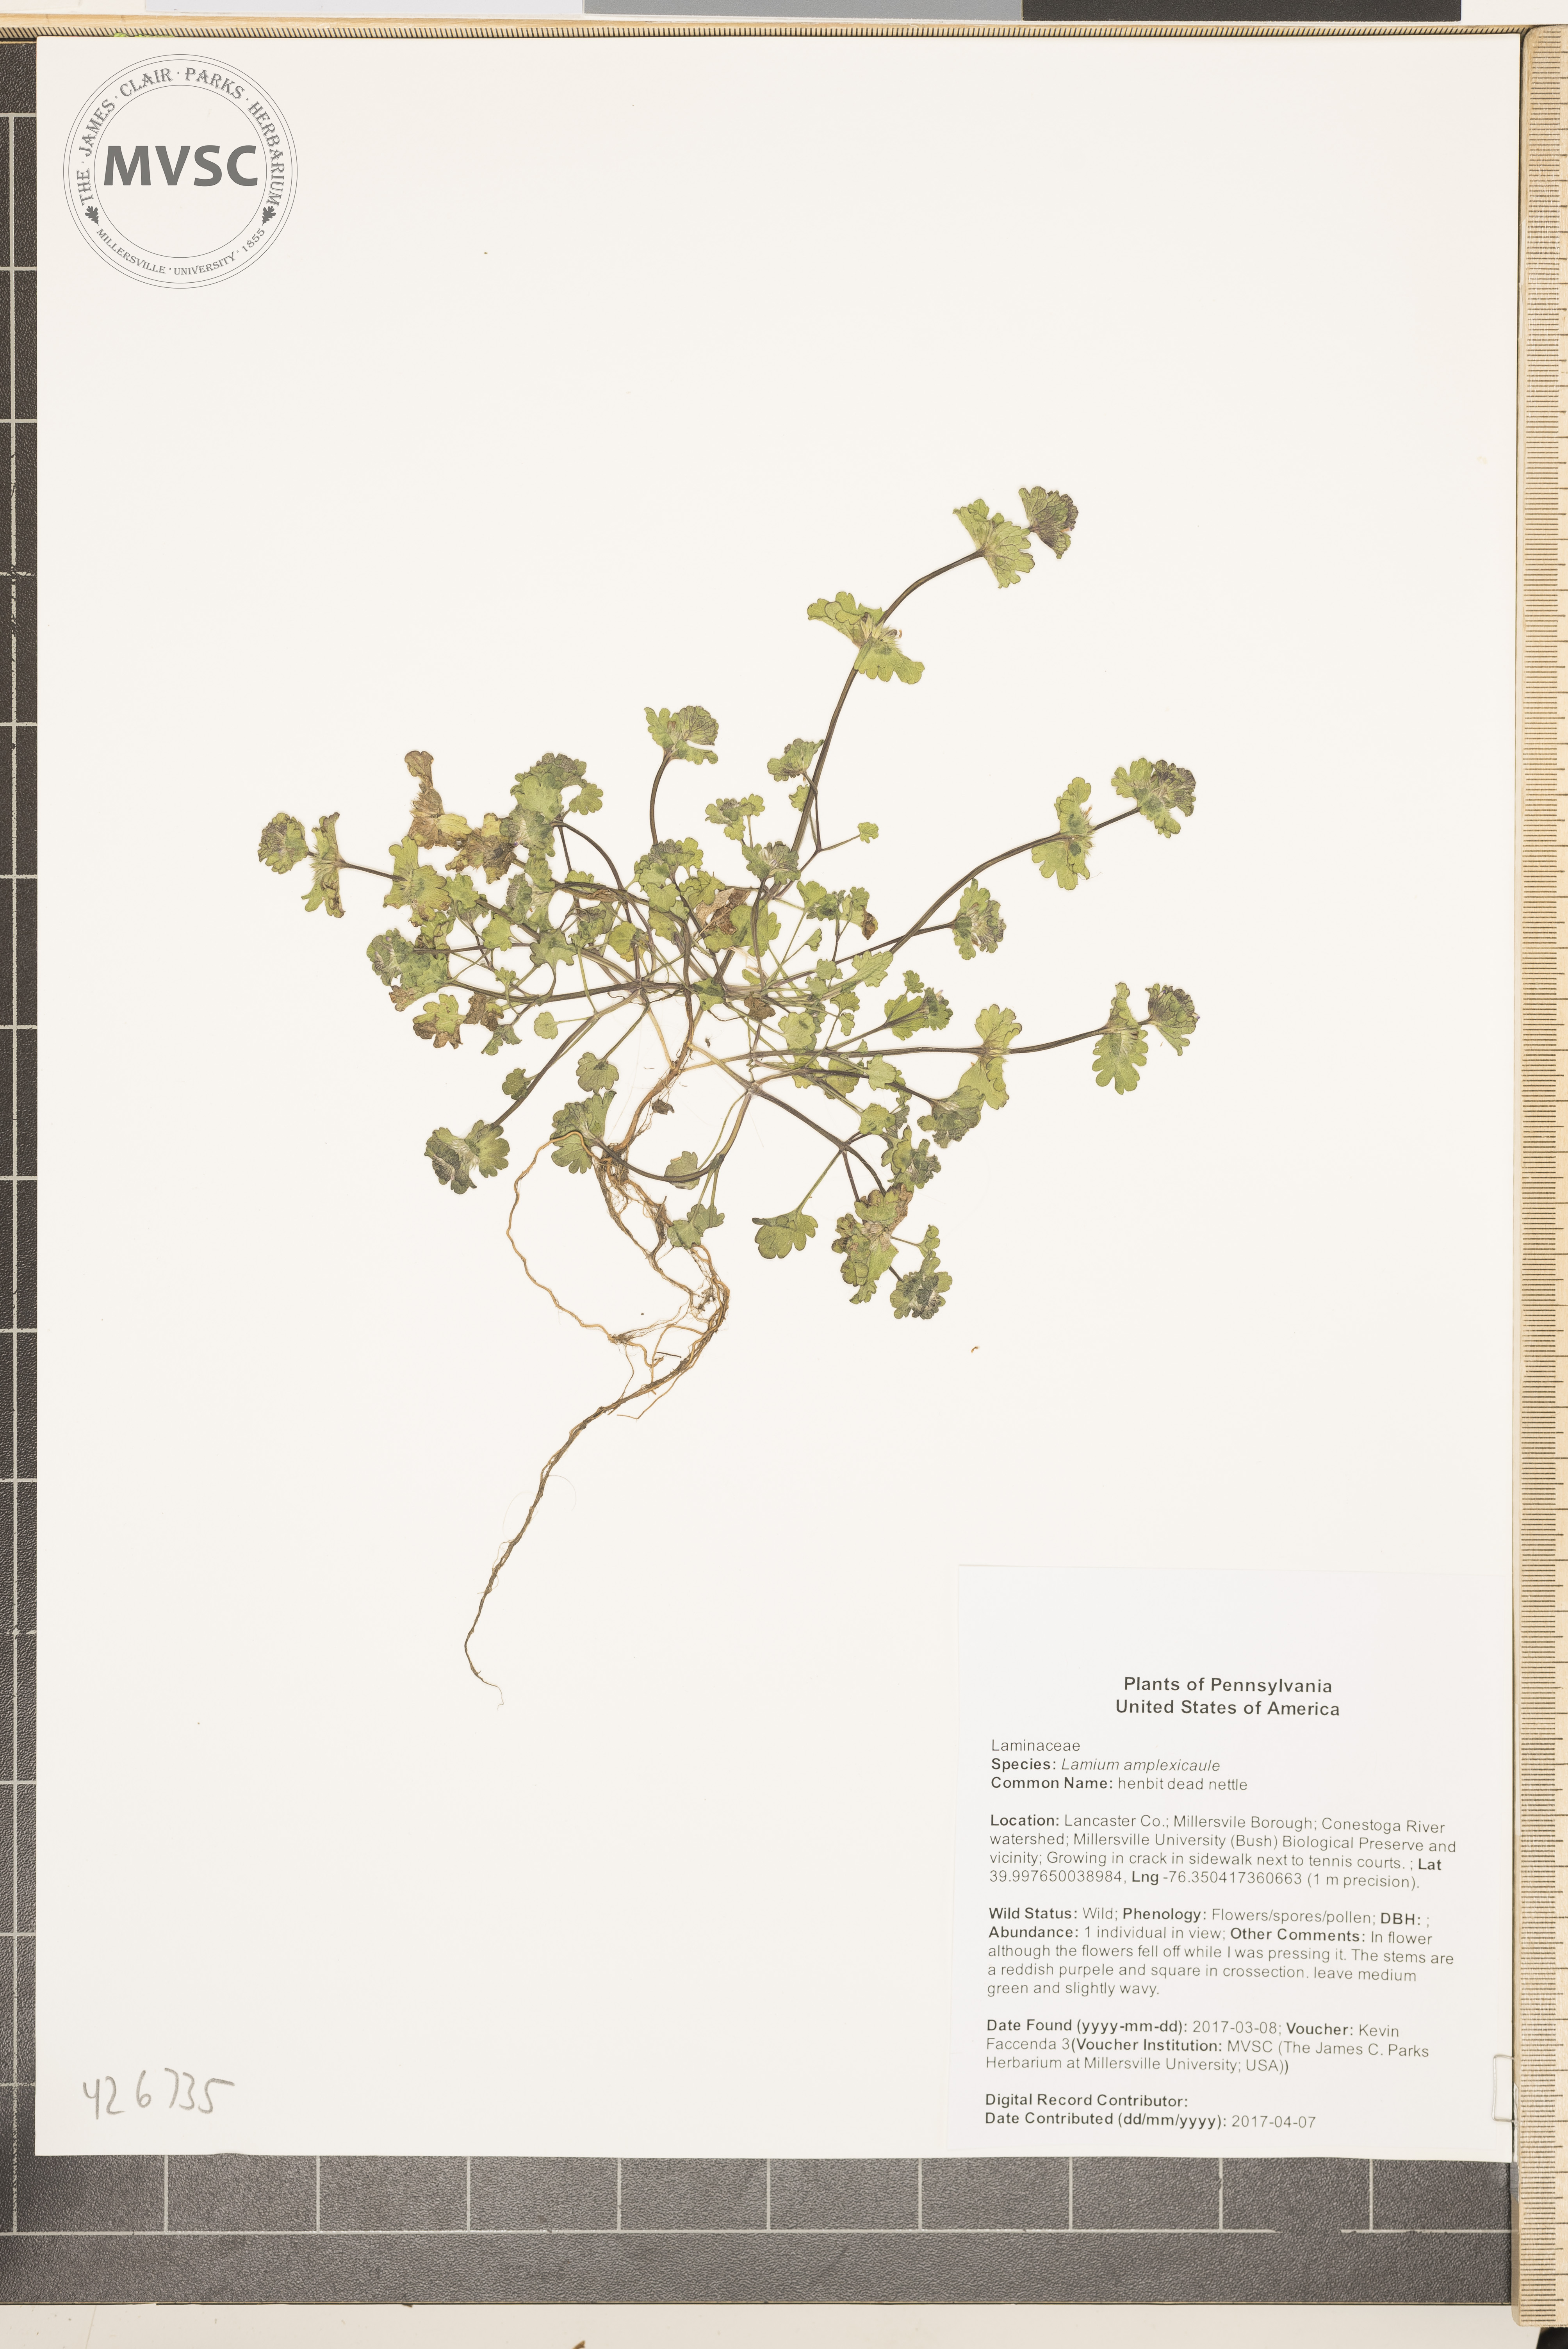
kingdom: Plantae
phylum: Tracheophyta
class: Magnoliopsida
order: Lamiales
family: Lamiaceae
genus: Lamium
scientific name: Lamium amplexicaule
